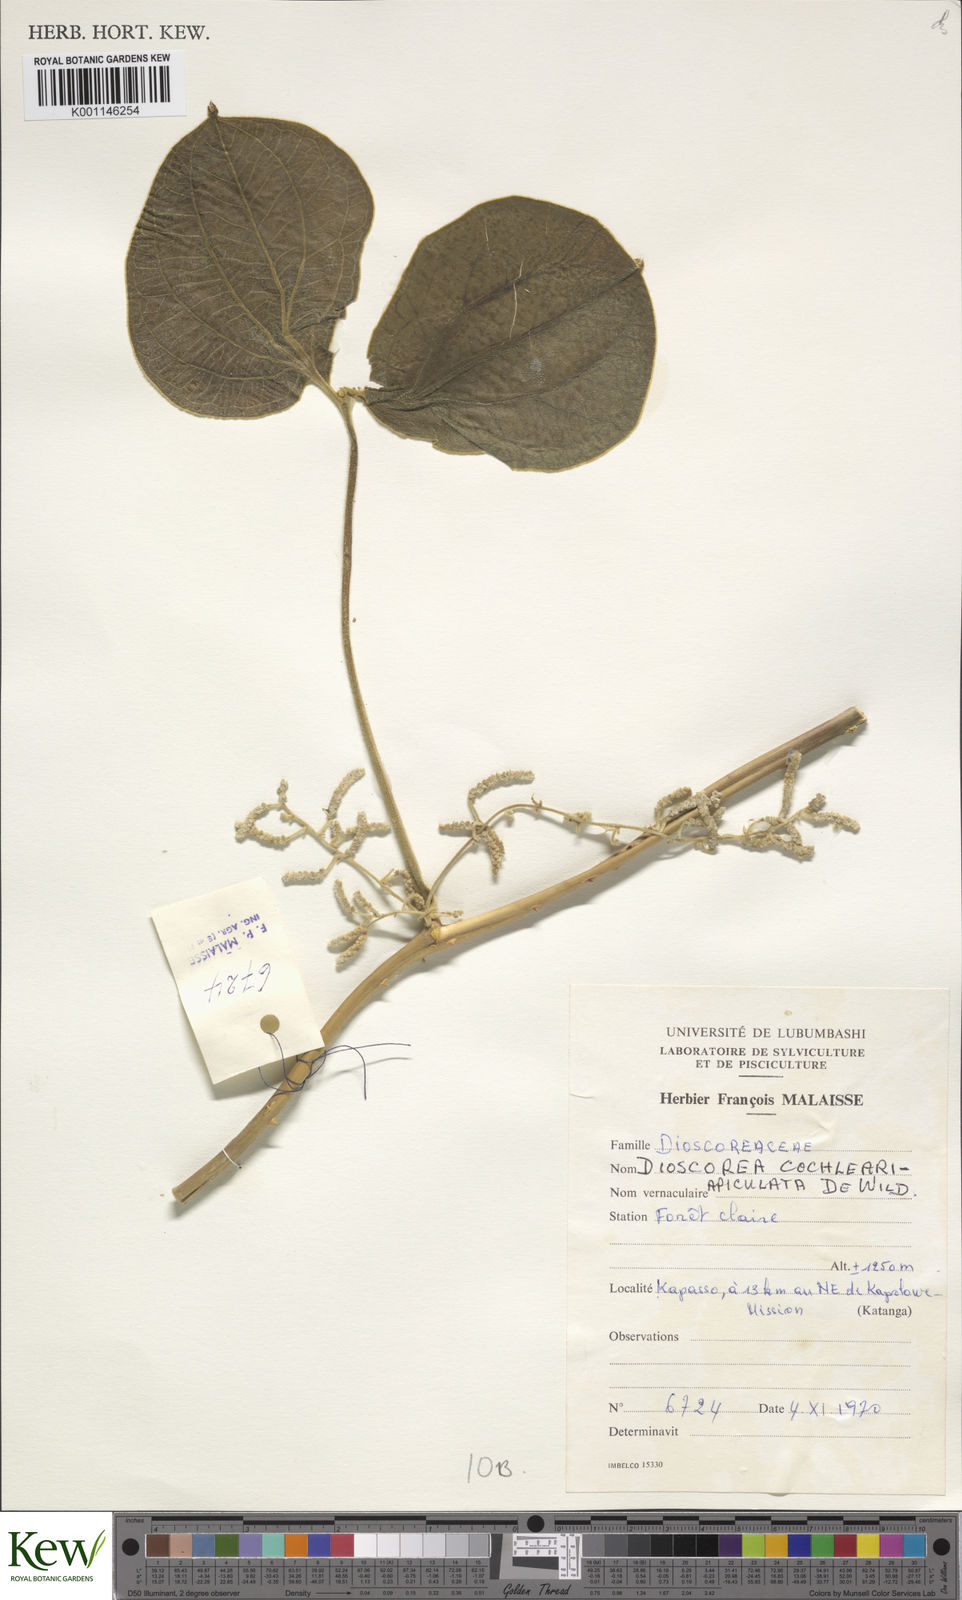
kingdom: Plantae
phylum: Tracheophyta
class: Liliopsida
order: Dioscoreales
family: Dioscoreaceae
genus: Dioscorea
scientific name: Dioscorea cochleariapiculata
